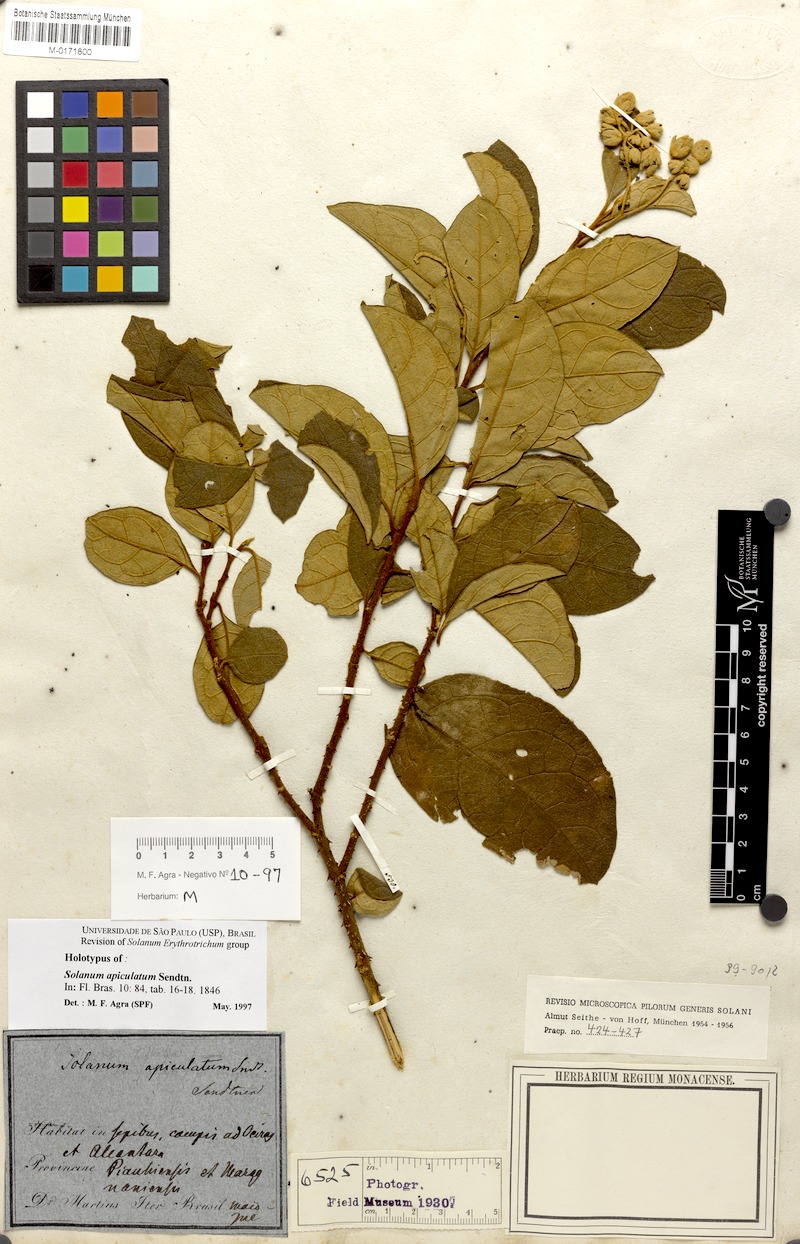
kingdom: Plantae
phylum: Tracheophyta
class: Magnoliopsida
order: Solanales
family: Solanaceae
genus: Solanum
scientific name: Solanum apiculatum
